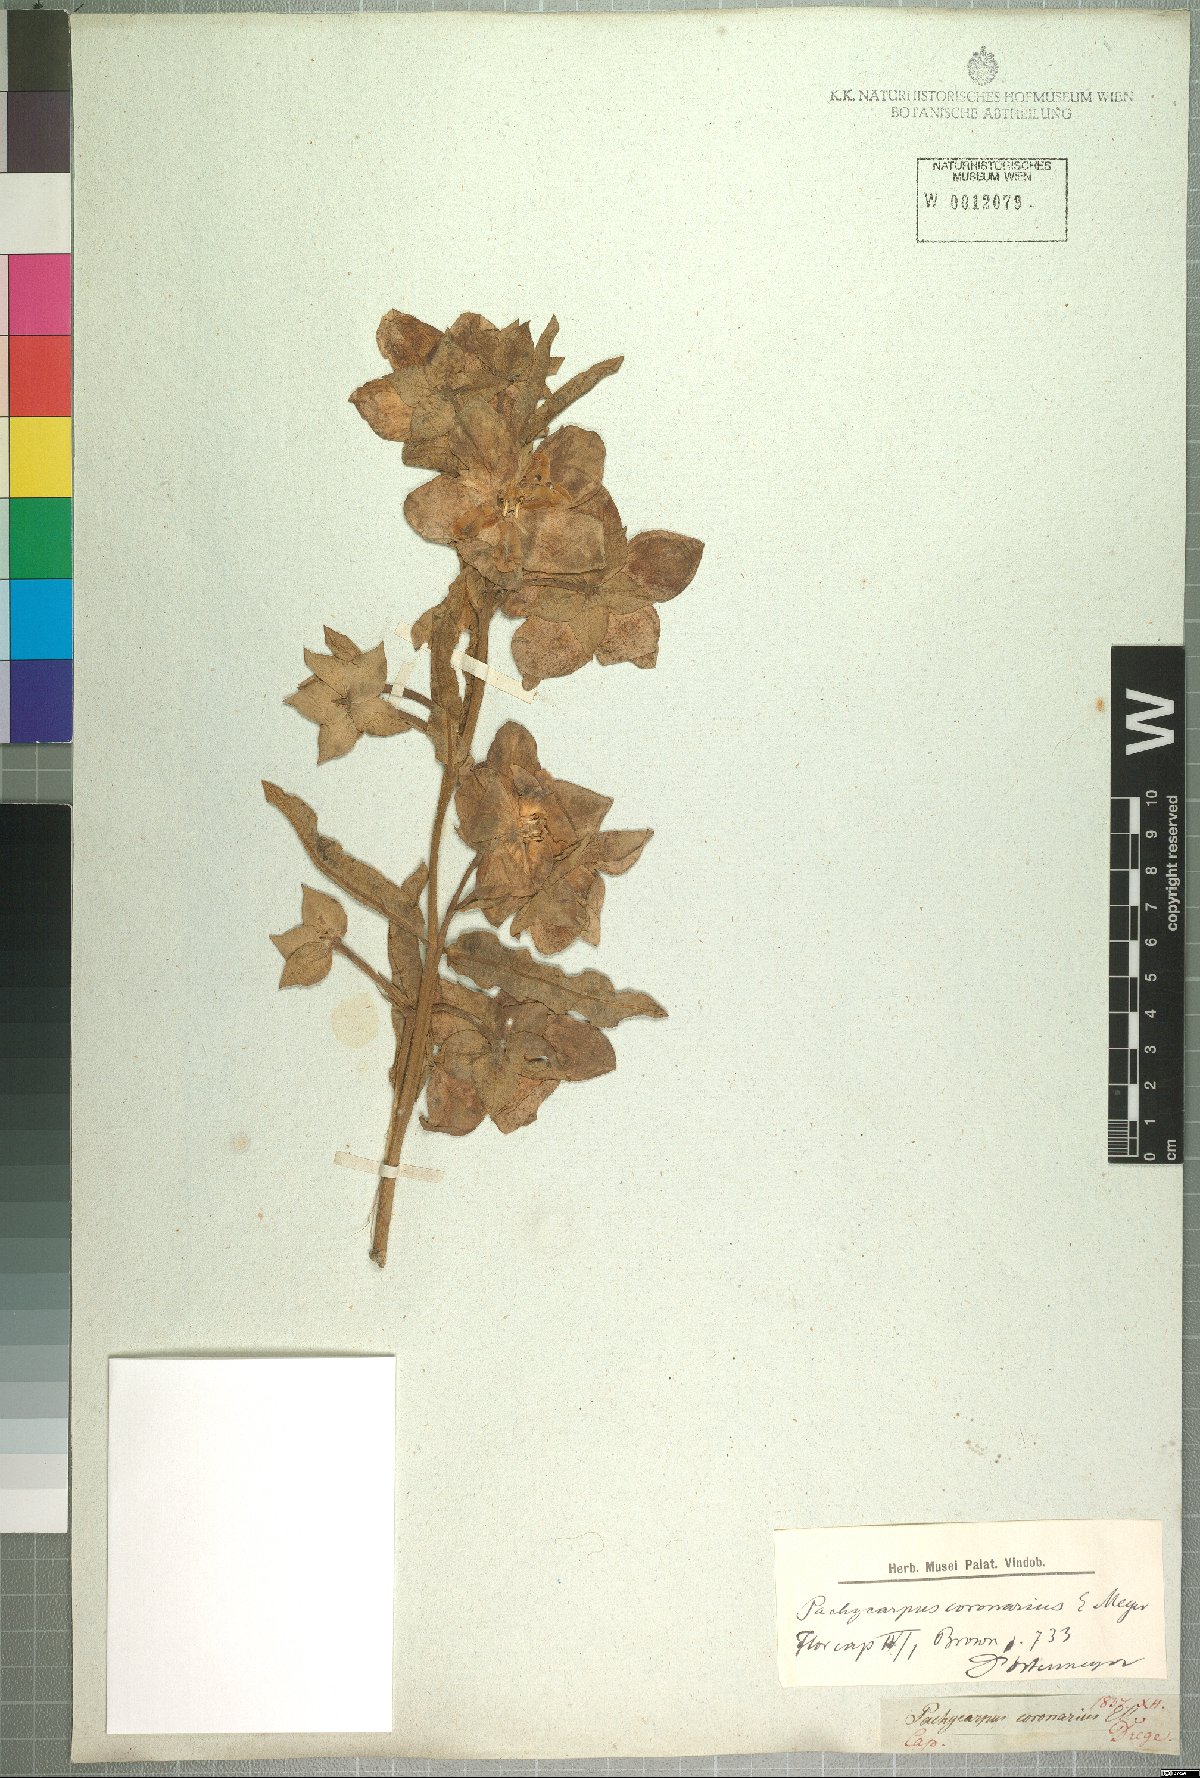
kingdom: Plantae
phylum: Tracheophyta
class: Magnoliopsida
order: Gentianales
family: Apocynaceae
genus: Pachycarpus
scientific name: Pachycarpus coronarius
